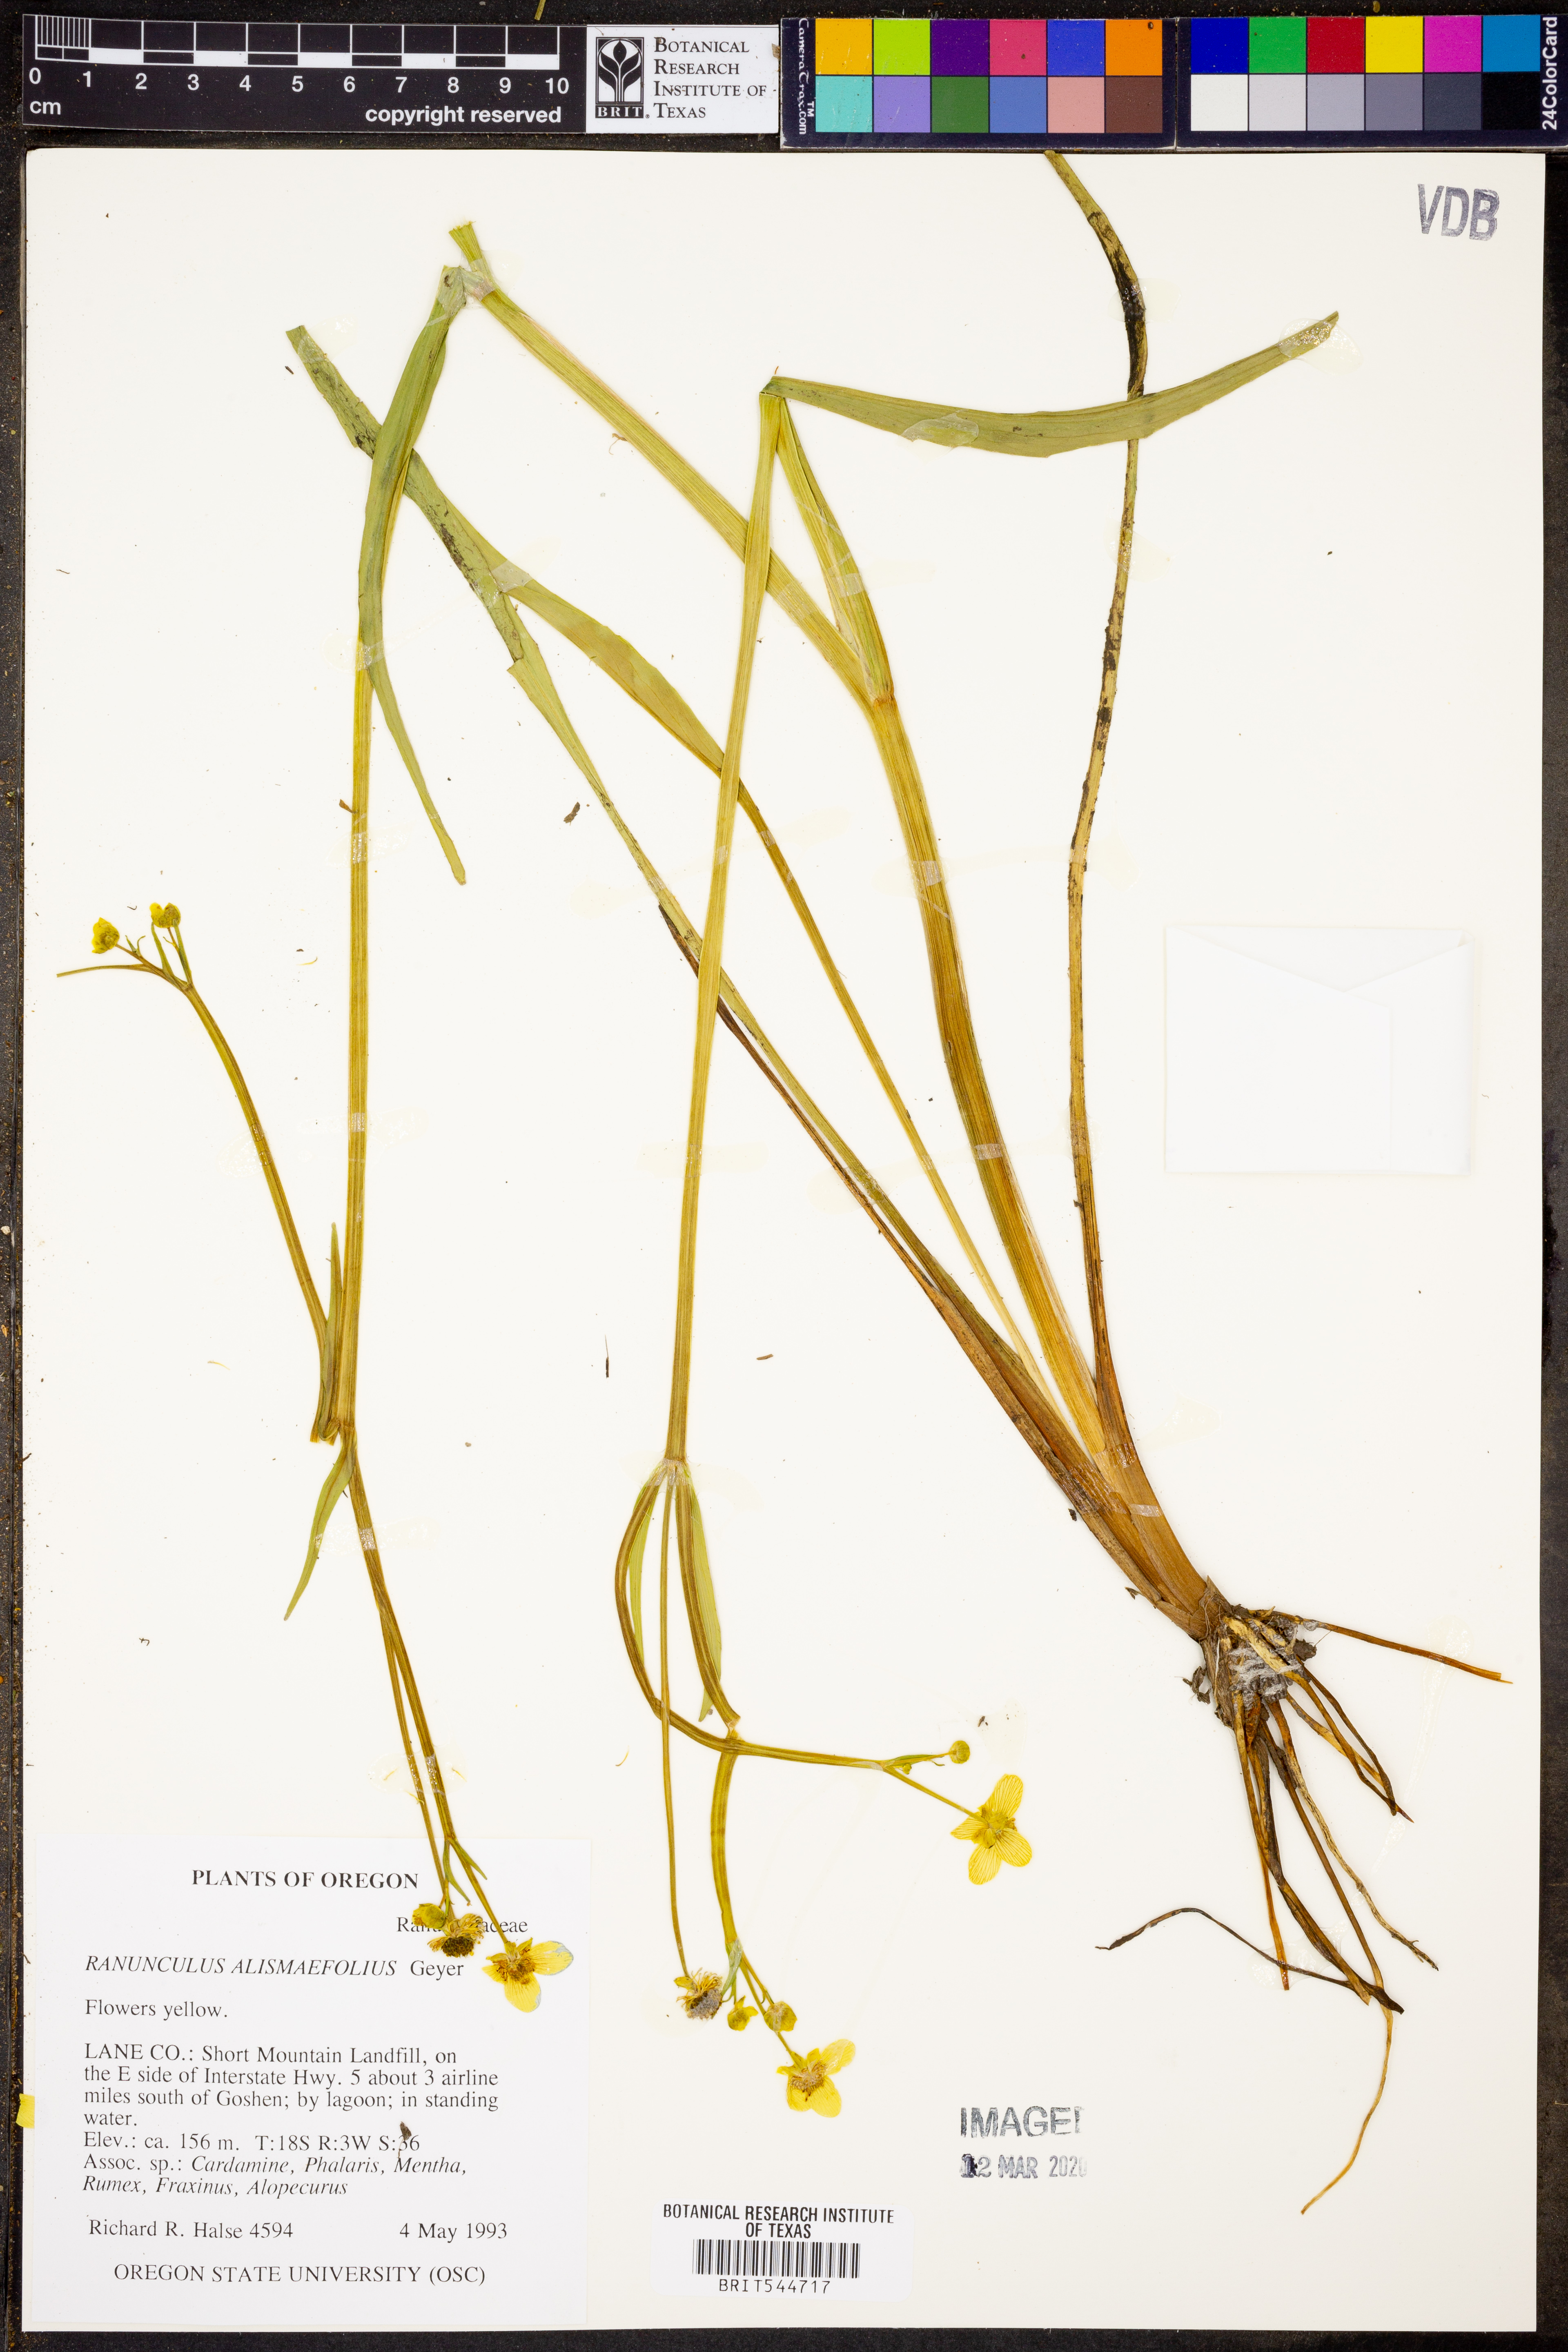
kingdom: Plantae
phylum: Tracheophyta
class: Magnoliopsida
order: Ranunculales
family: Ranunculaceae
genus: Ranunculus
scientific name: Ranunculus alismifolius
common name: Plantain-leaved buttercup
